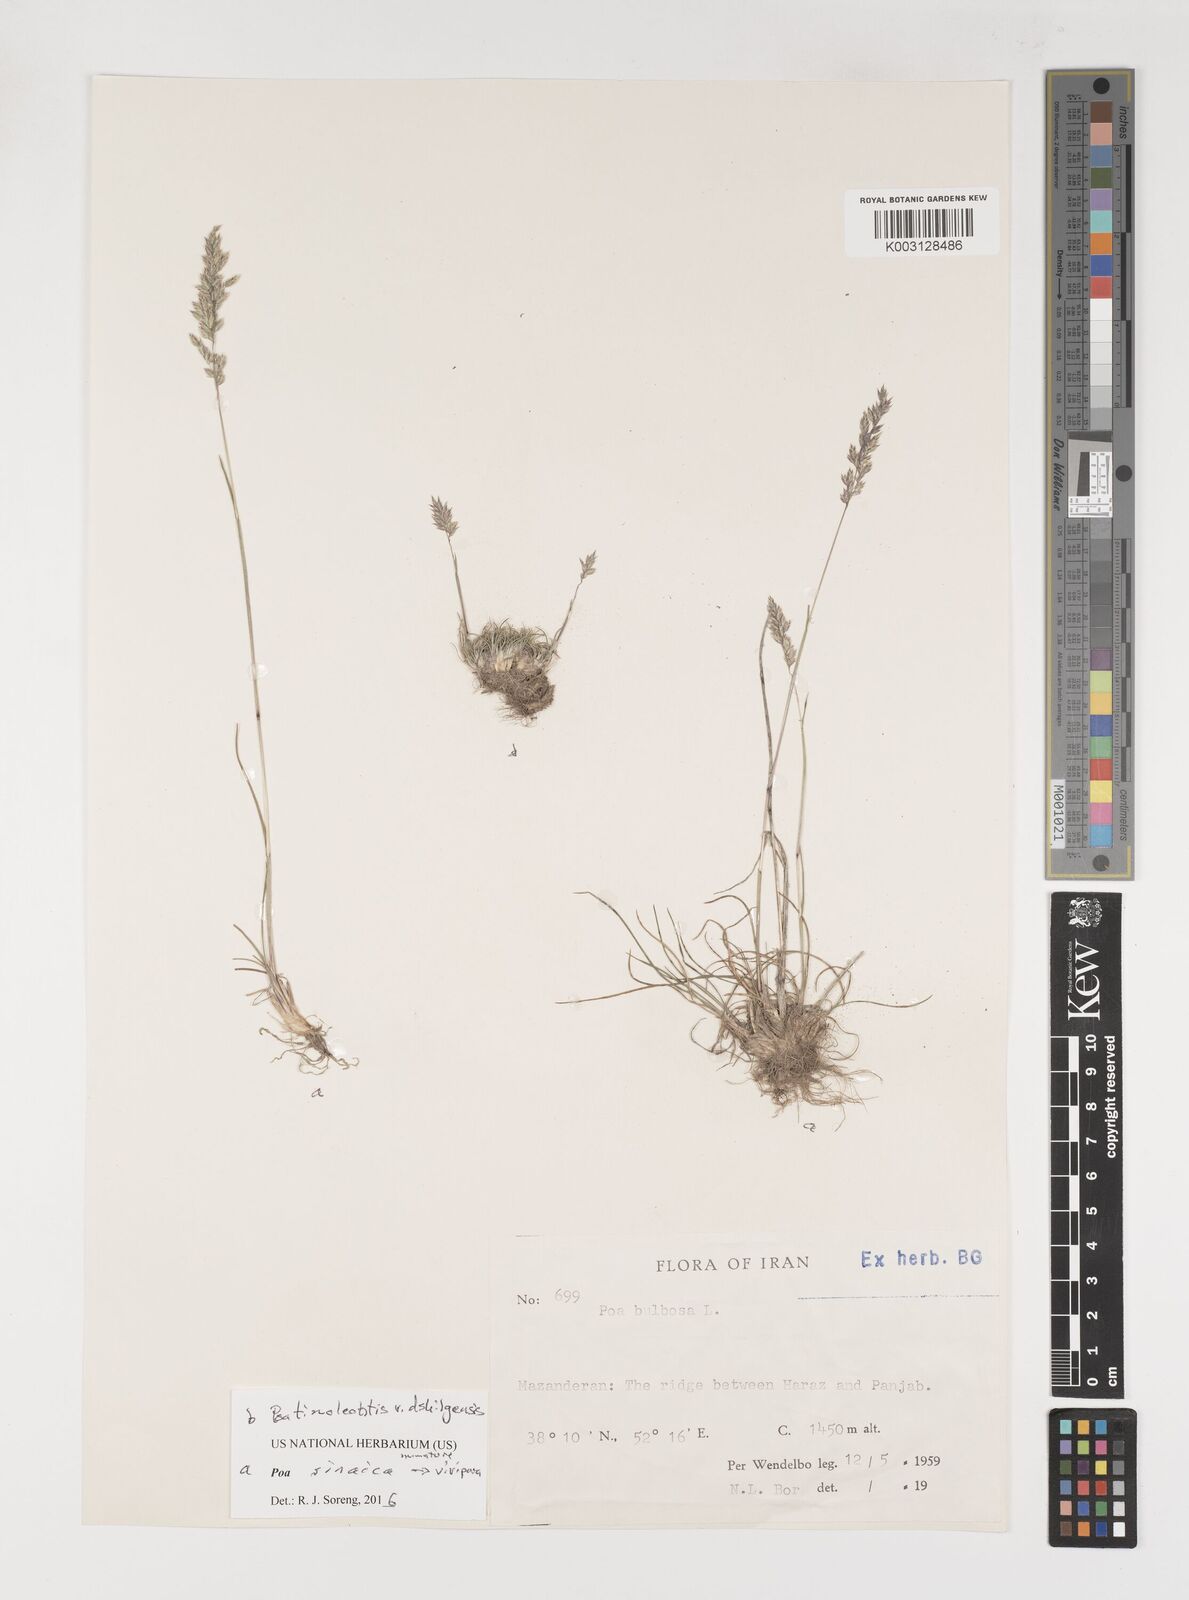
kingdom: Plantae
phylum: Tracheophyta
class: Liliopsida
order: Poales
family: Poaceae
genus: Poa
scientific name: Poa sinaica
